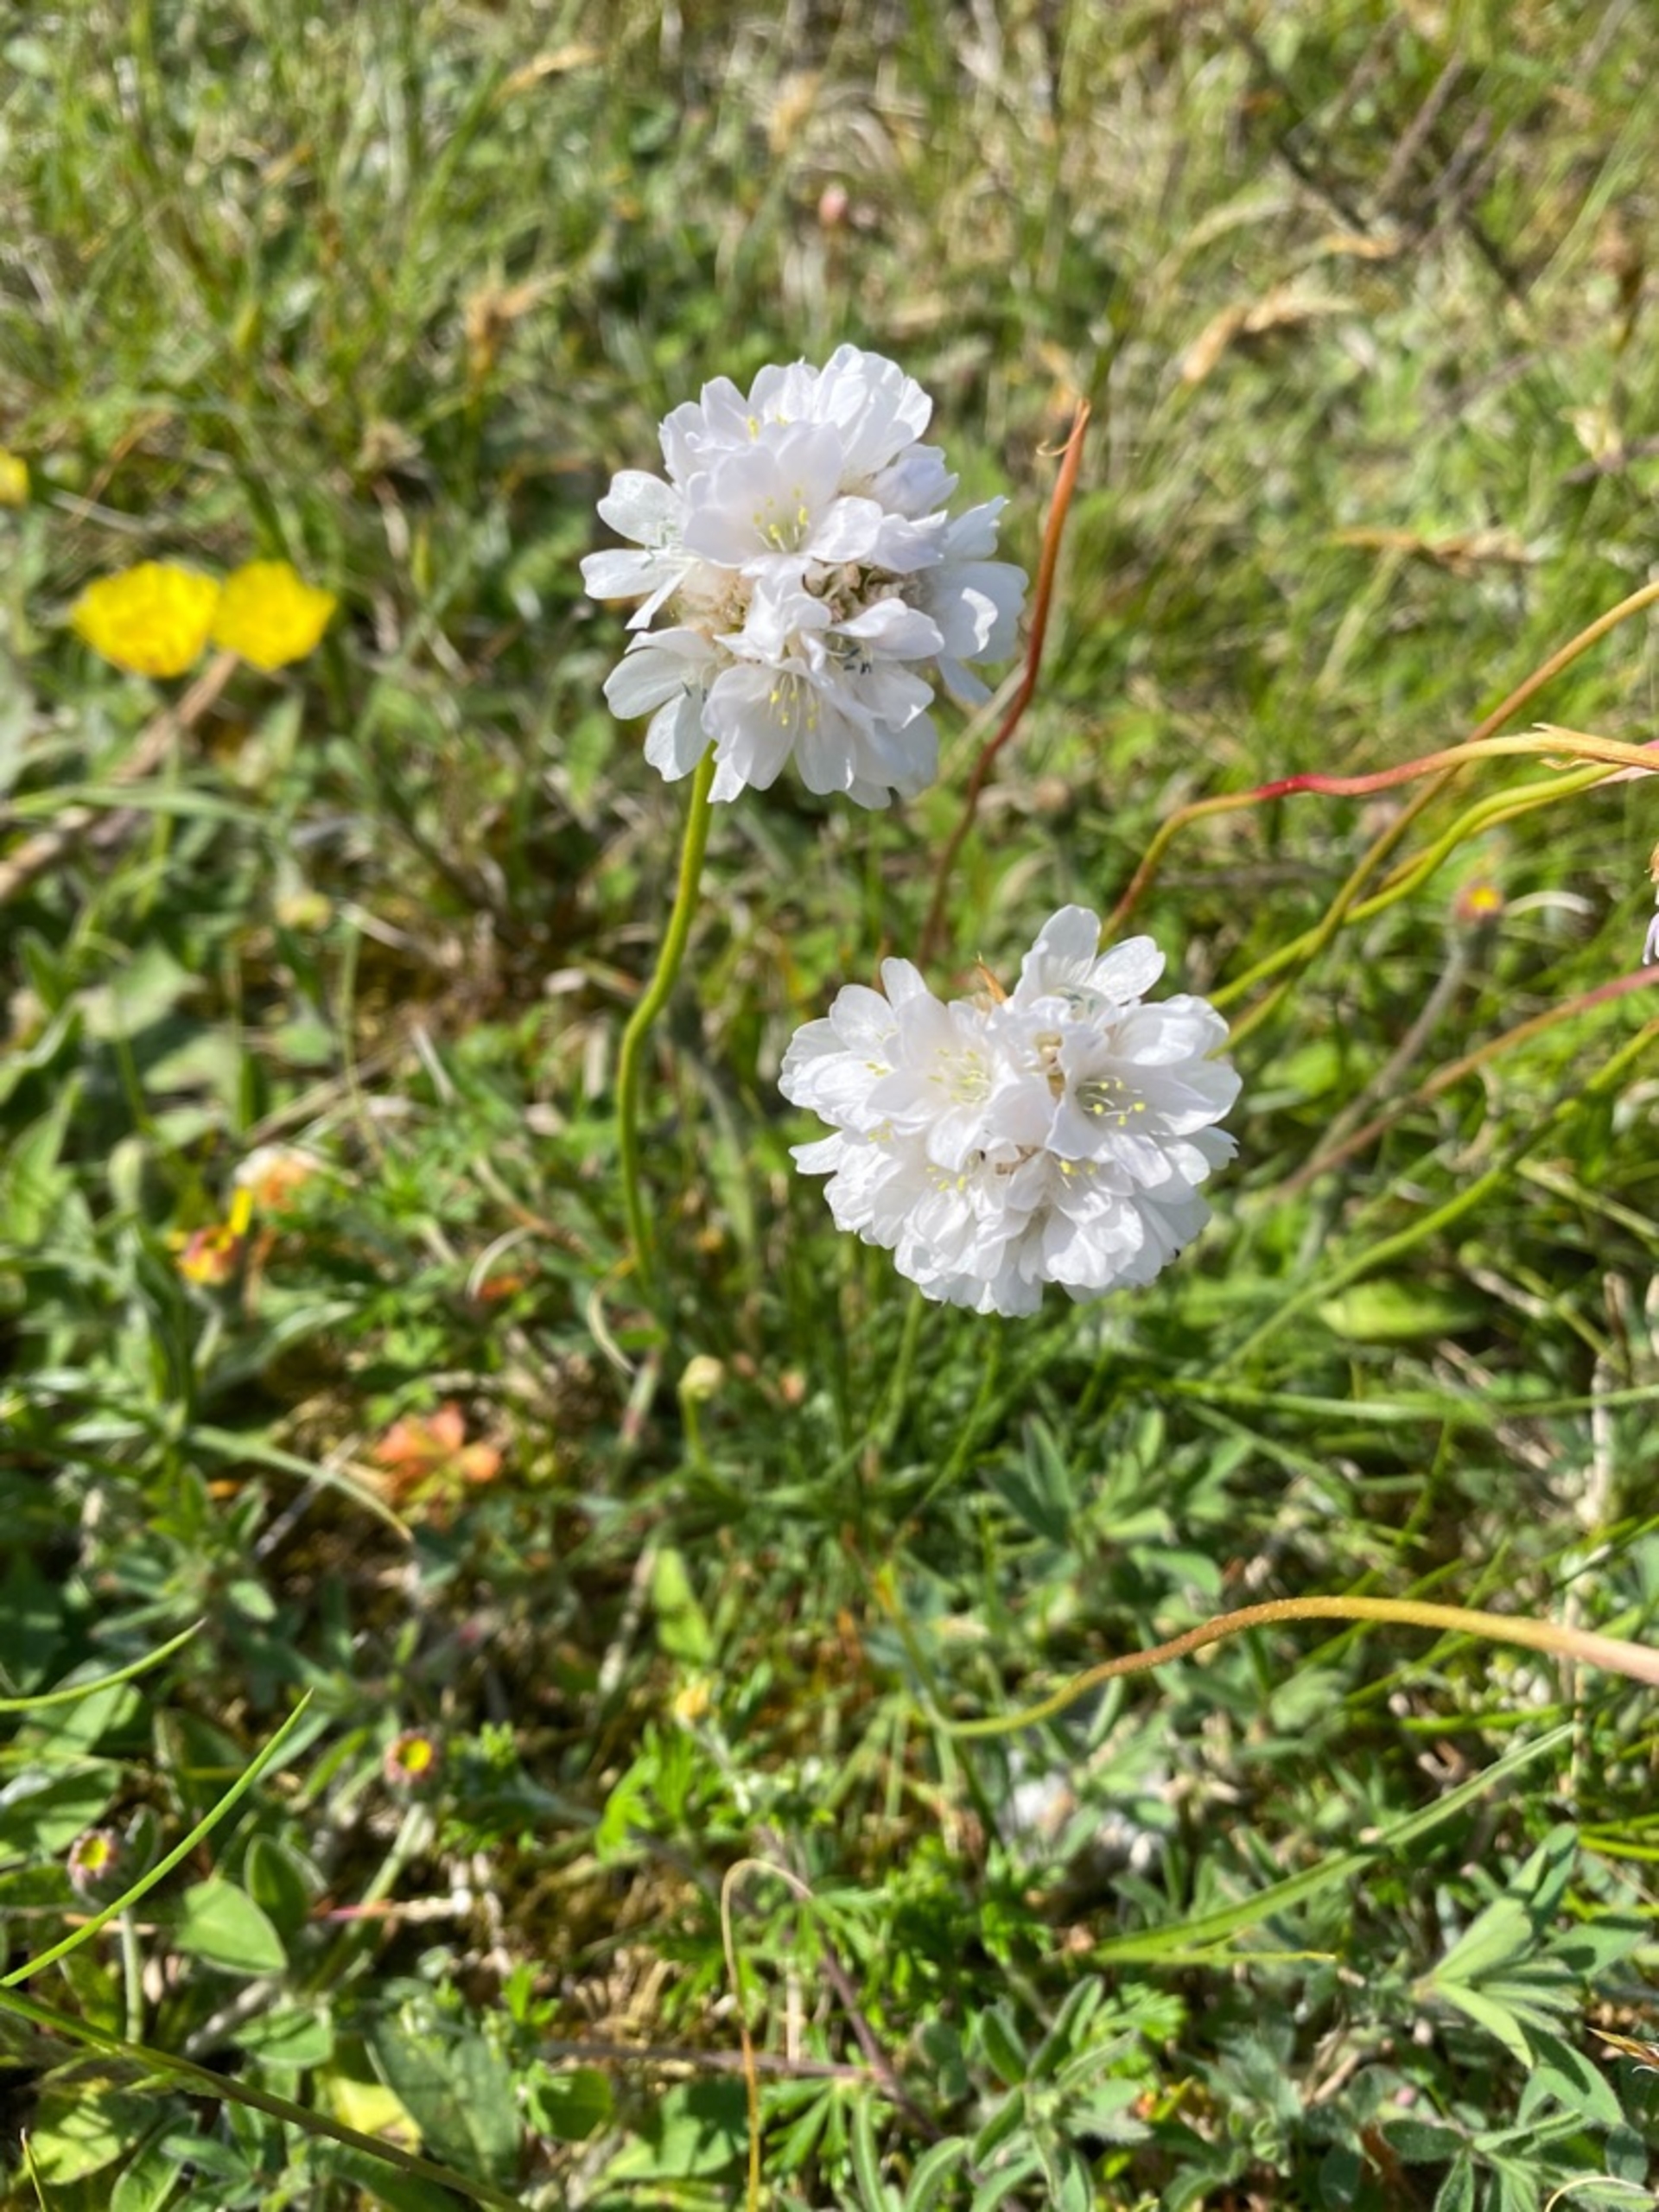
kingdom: Plantae
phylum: Tracheophyta
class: Magnoliopsida
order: Caryophyllales
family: Plumbaginaceae
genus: Armeria
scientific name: Armeria maritima
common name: Engelskgræs
